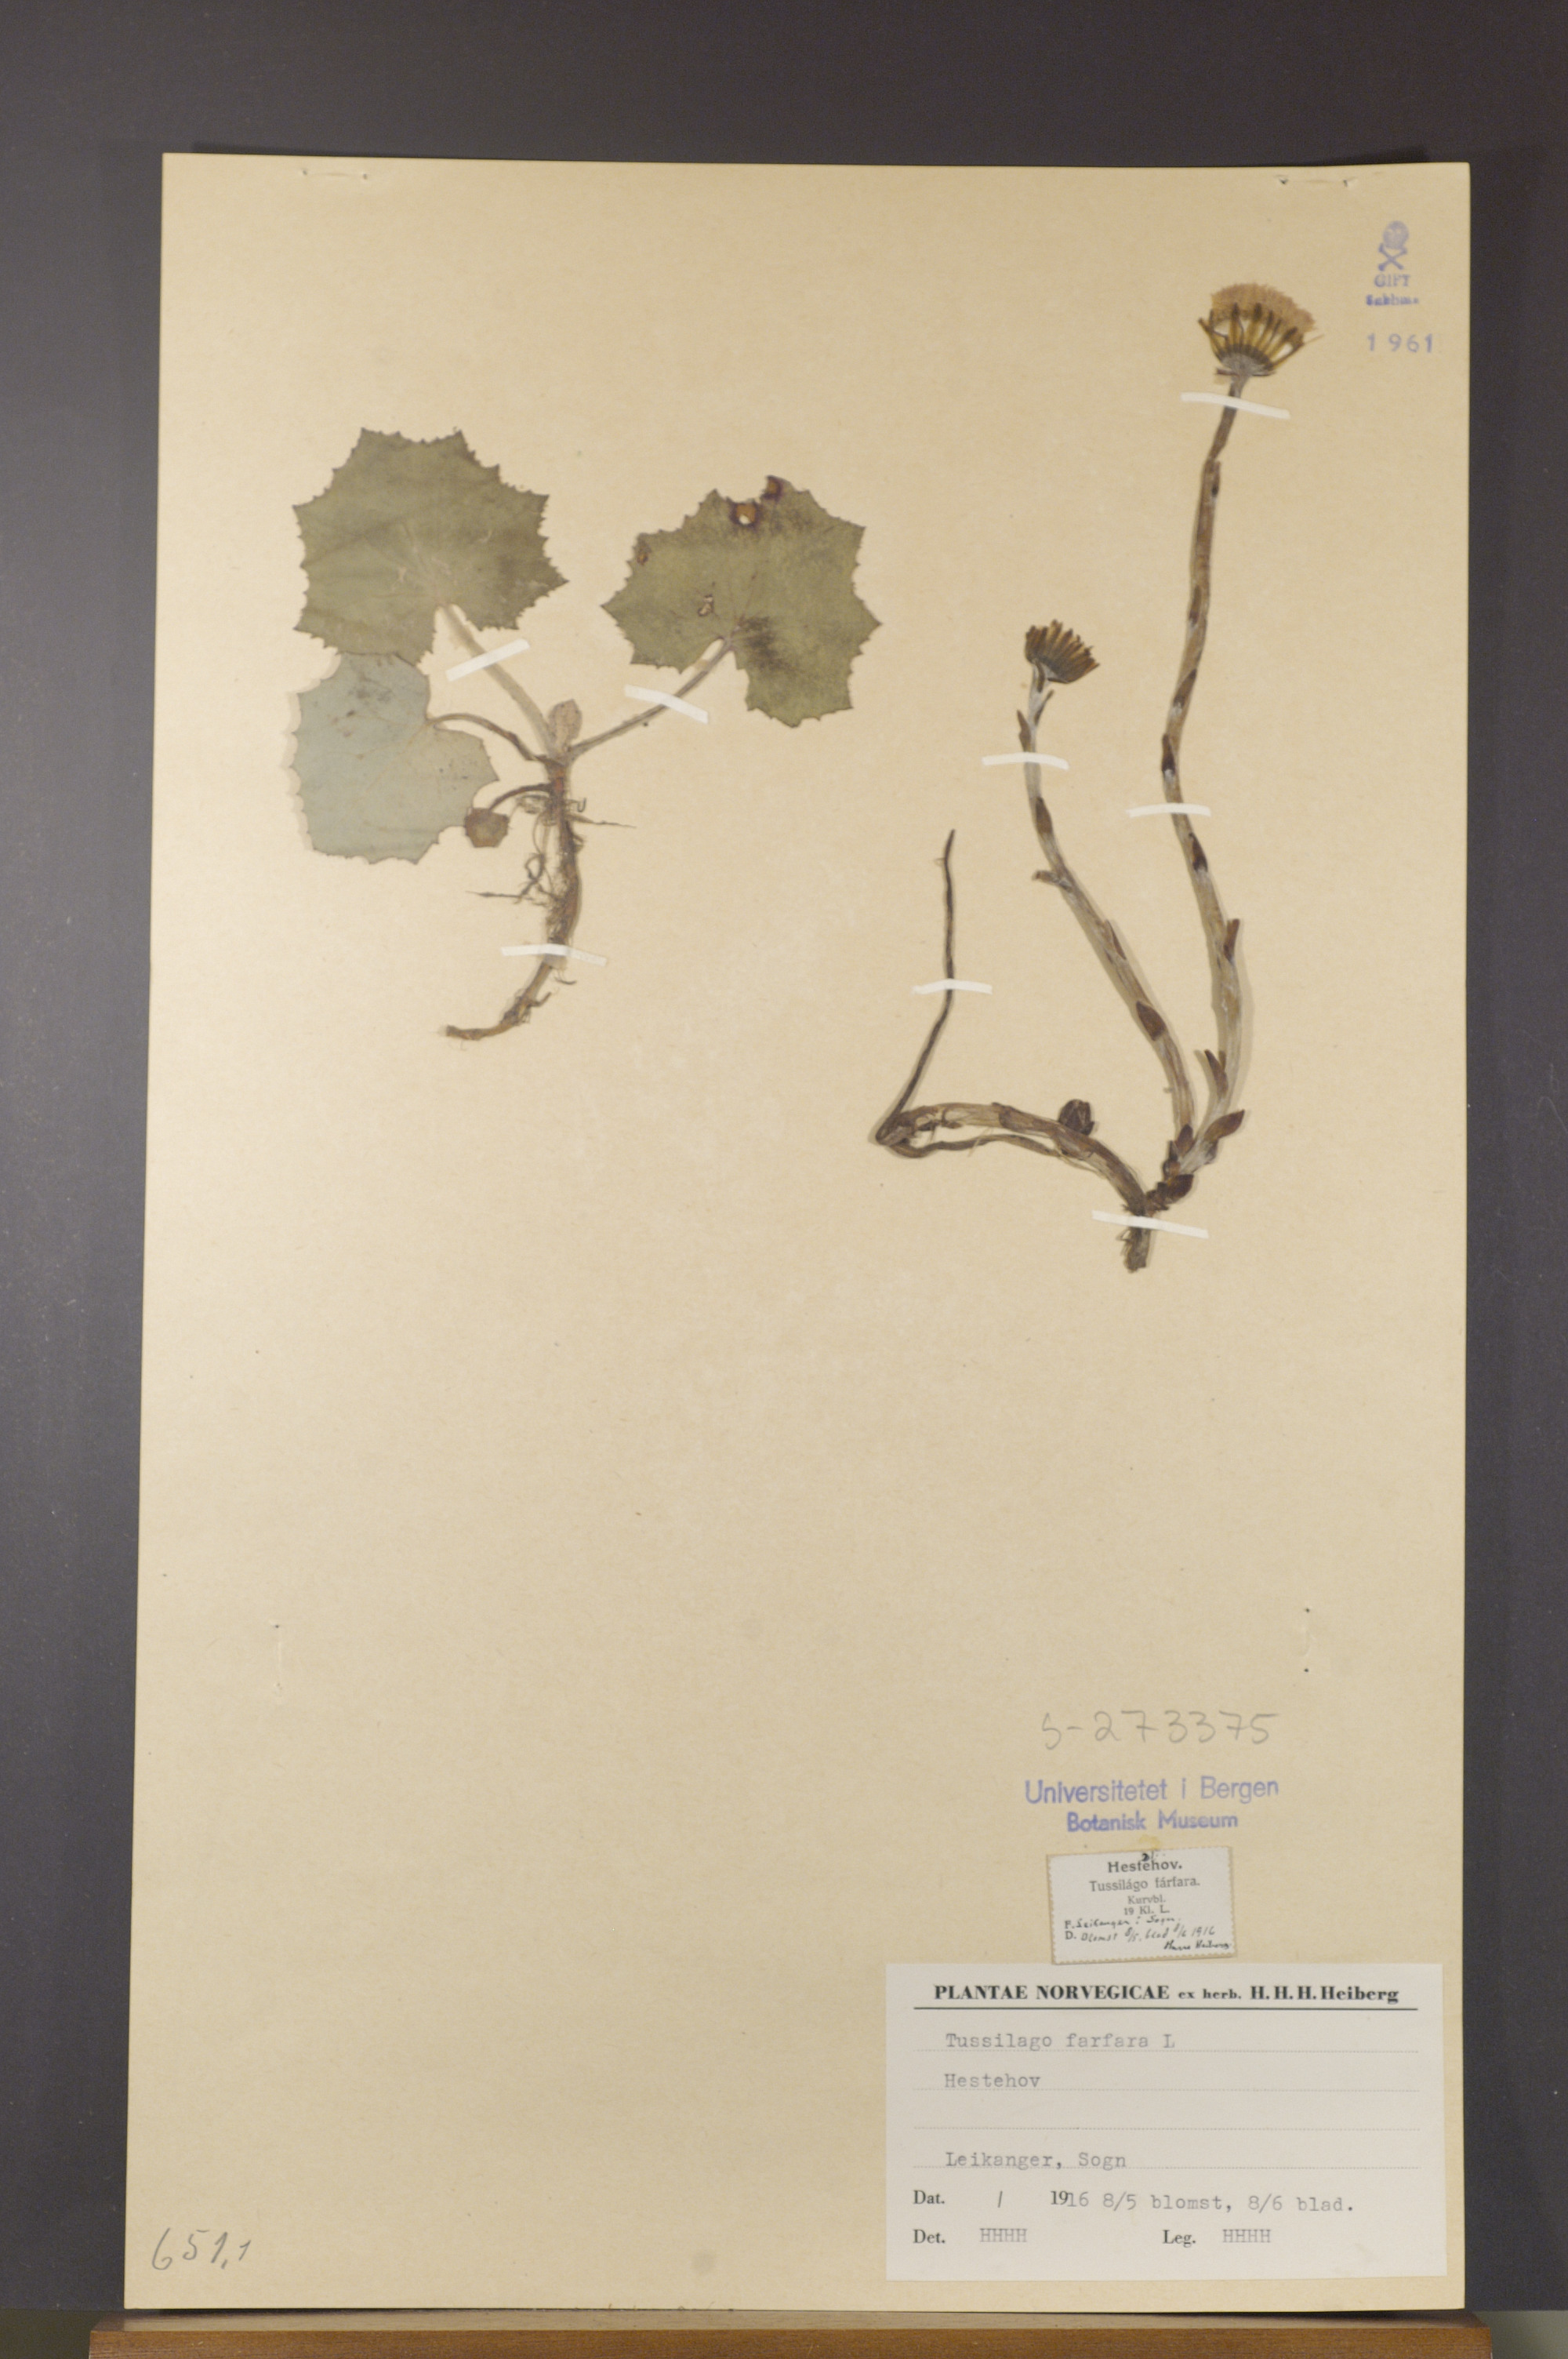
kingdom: Plantae
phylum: Tracheophyta
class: Magnoliopsida
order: Asterales
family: Asteraceae
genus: Tussilago
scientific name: Tussilago farfara
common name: Coltsfoot
